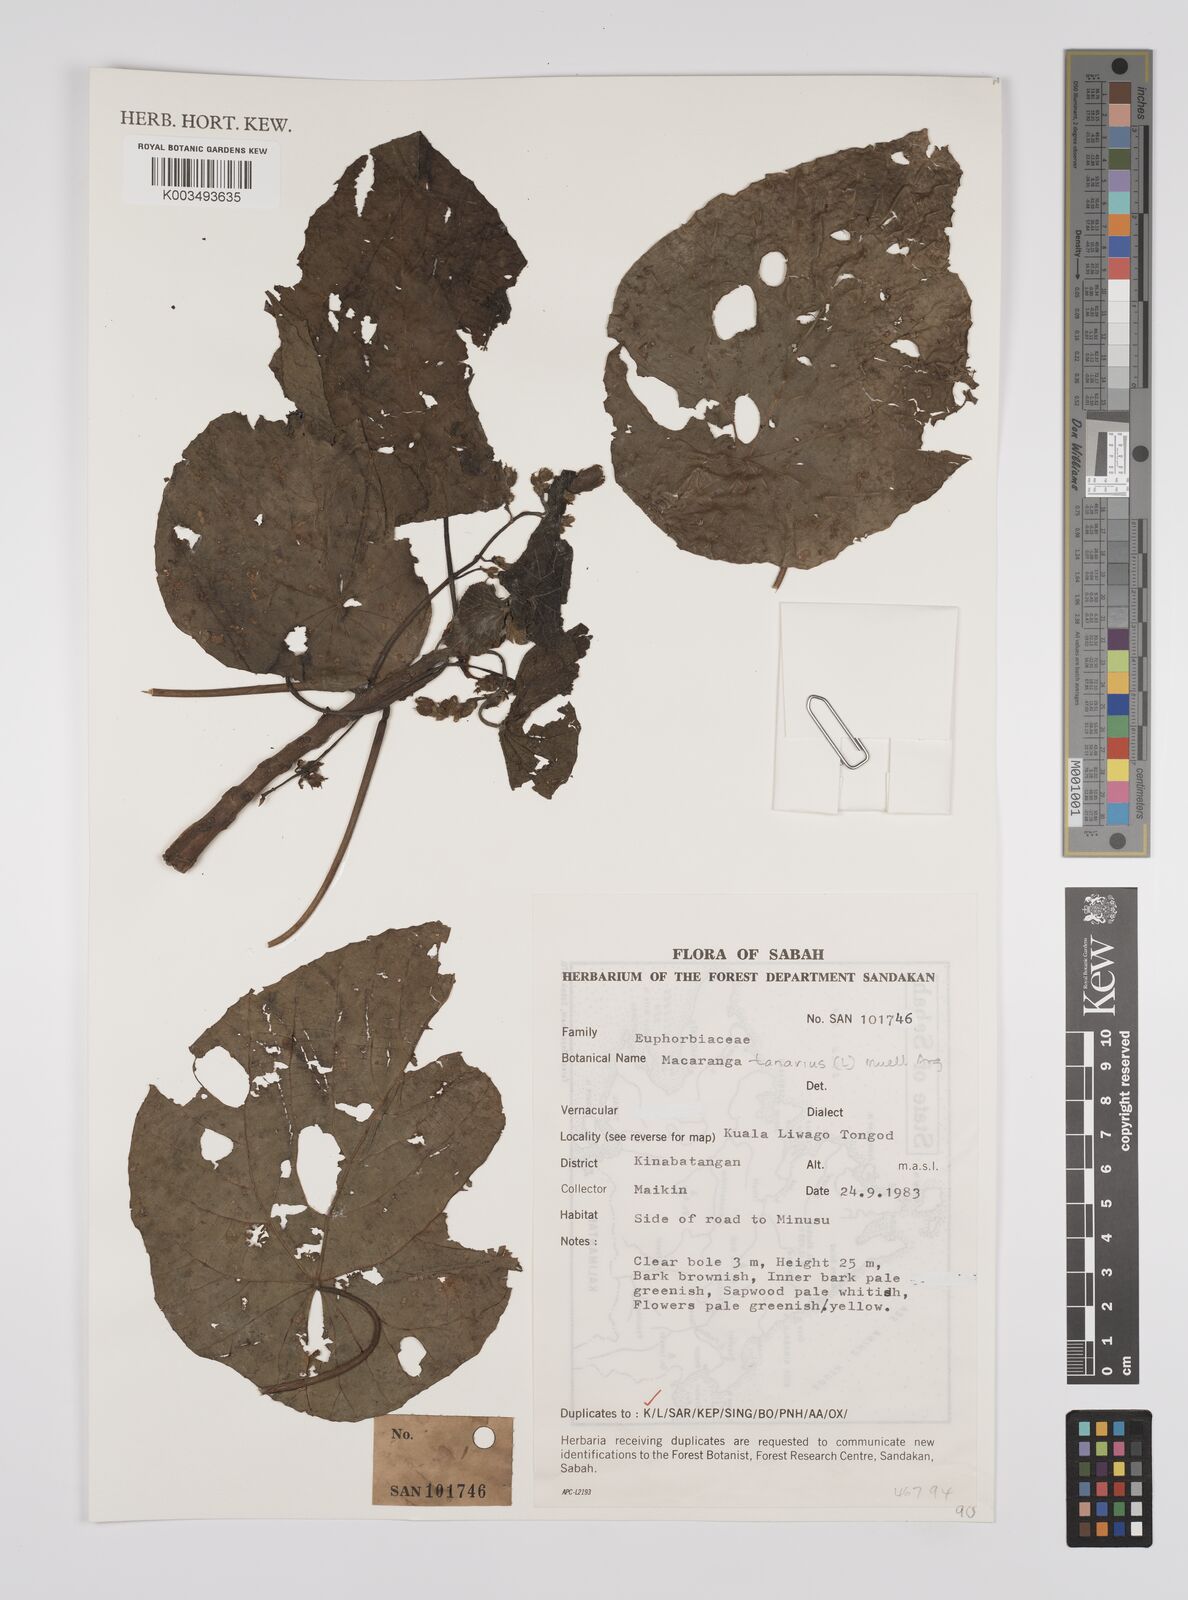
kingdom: Plantae
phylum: Tracheophyta
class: Magnoliopsida
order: Malpighiales
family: Euphorbiaceae
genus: Macaranga
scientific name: Macaranga tanarius
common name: Parasol leaf tree
